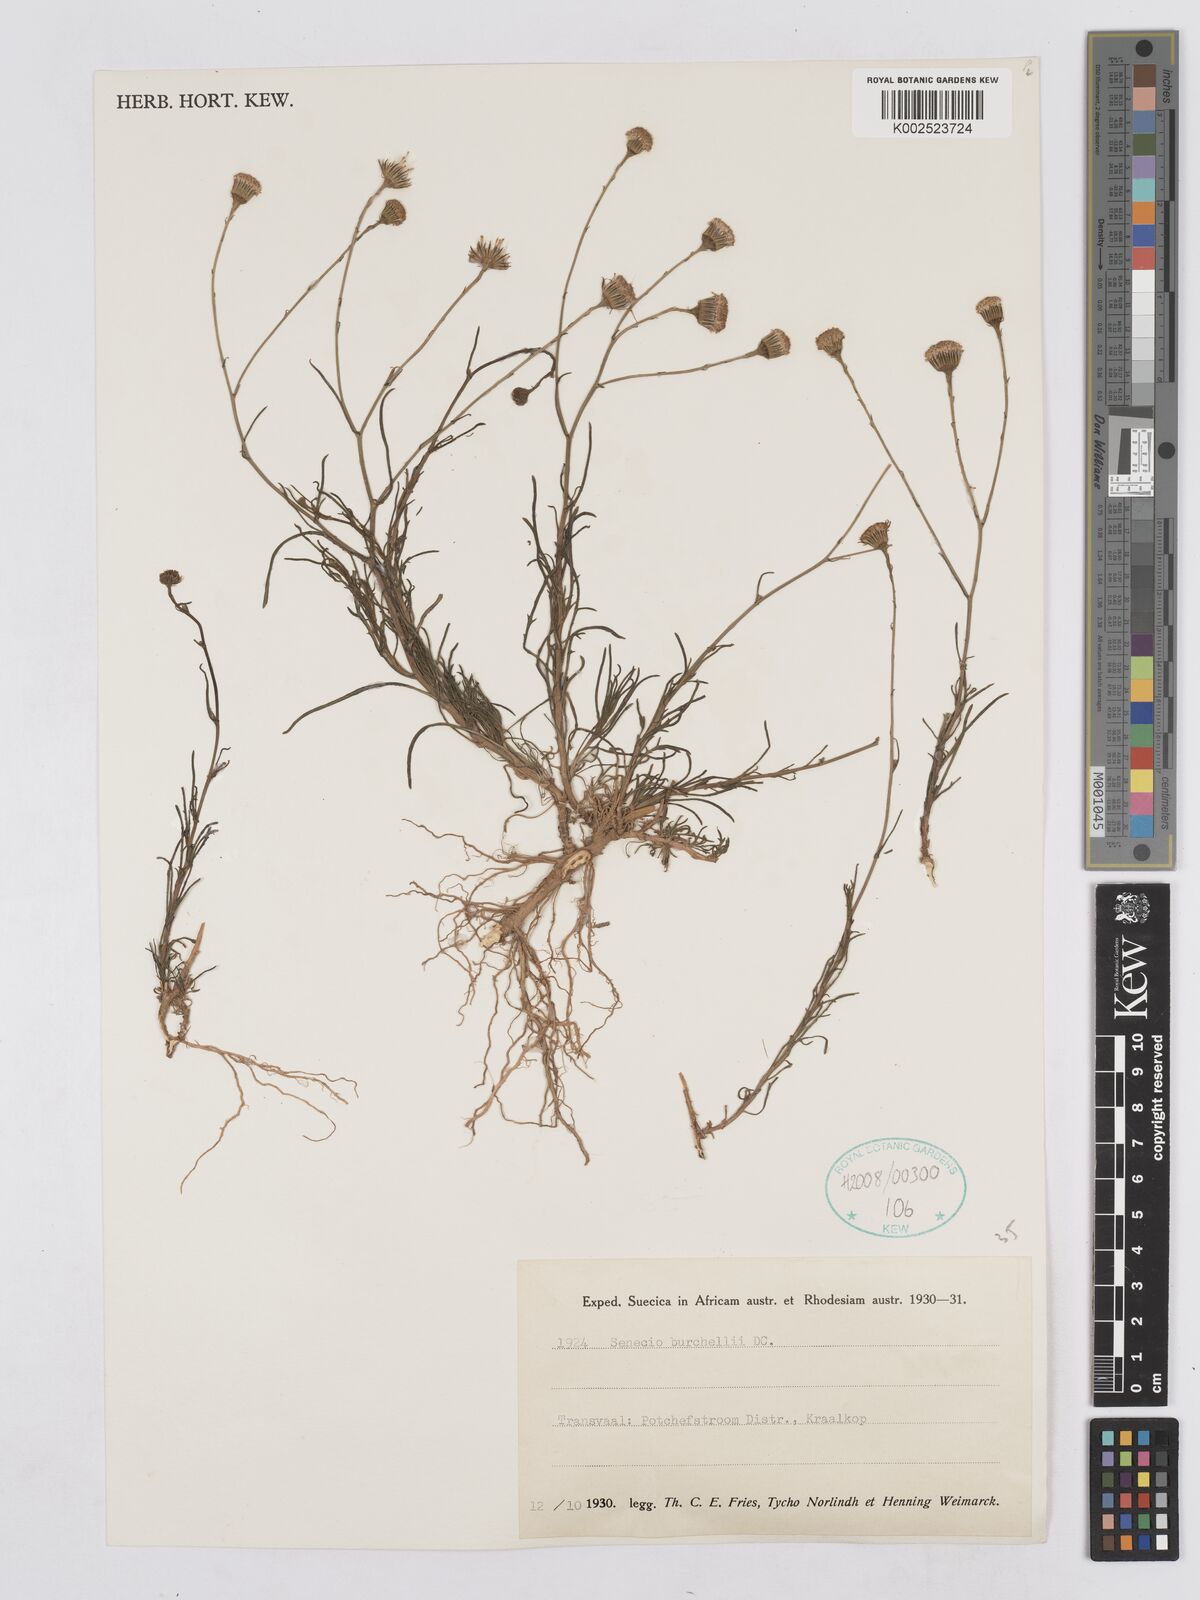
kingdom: Plantae
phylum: Tracheophyta
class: Magnoliopsida
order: Asterales
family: Asteraceae
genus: Senecio
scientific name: Senecio burchellii
